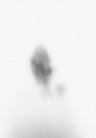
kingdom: Animalia
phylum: Annelida
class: Polychaeta
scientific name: Polychaeta
